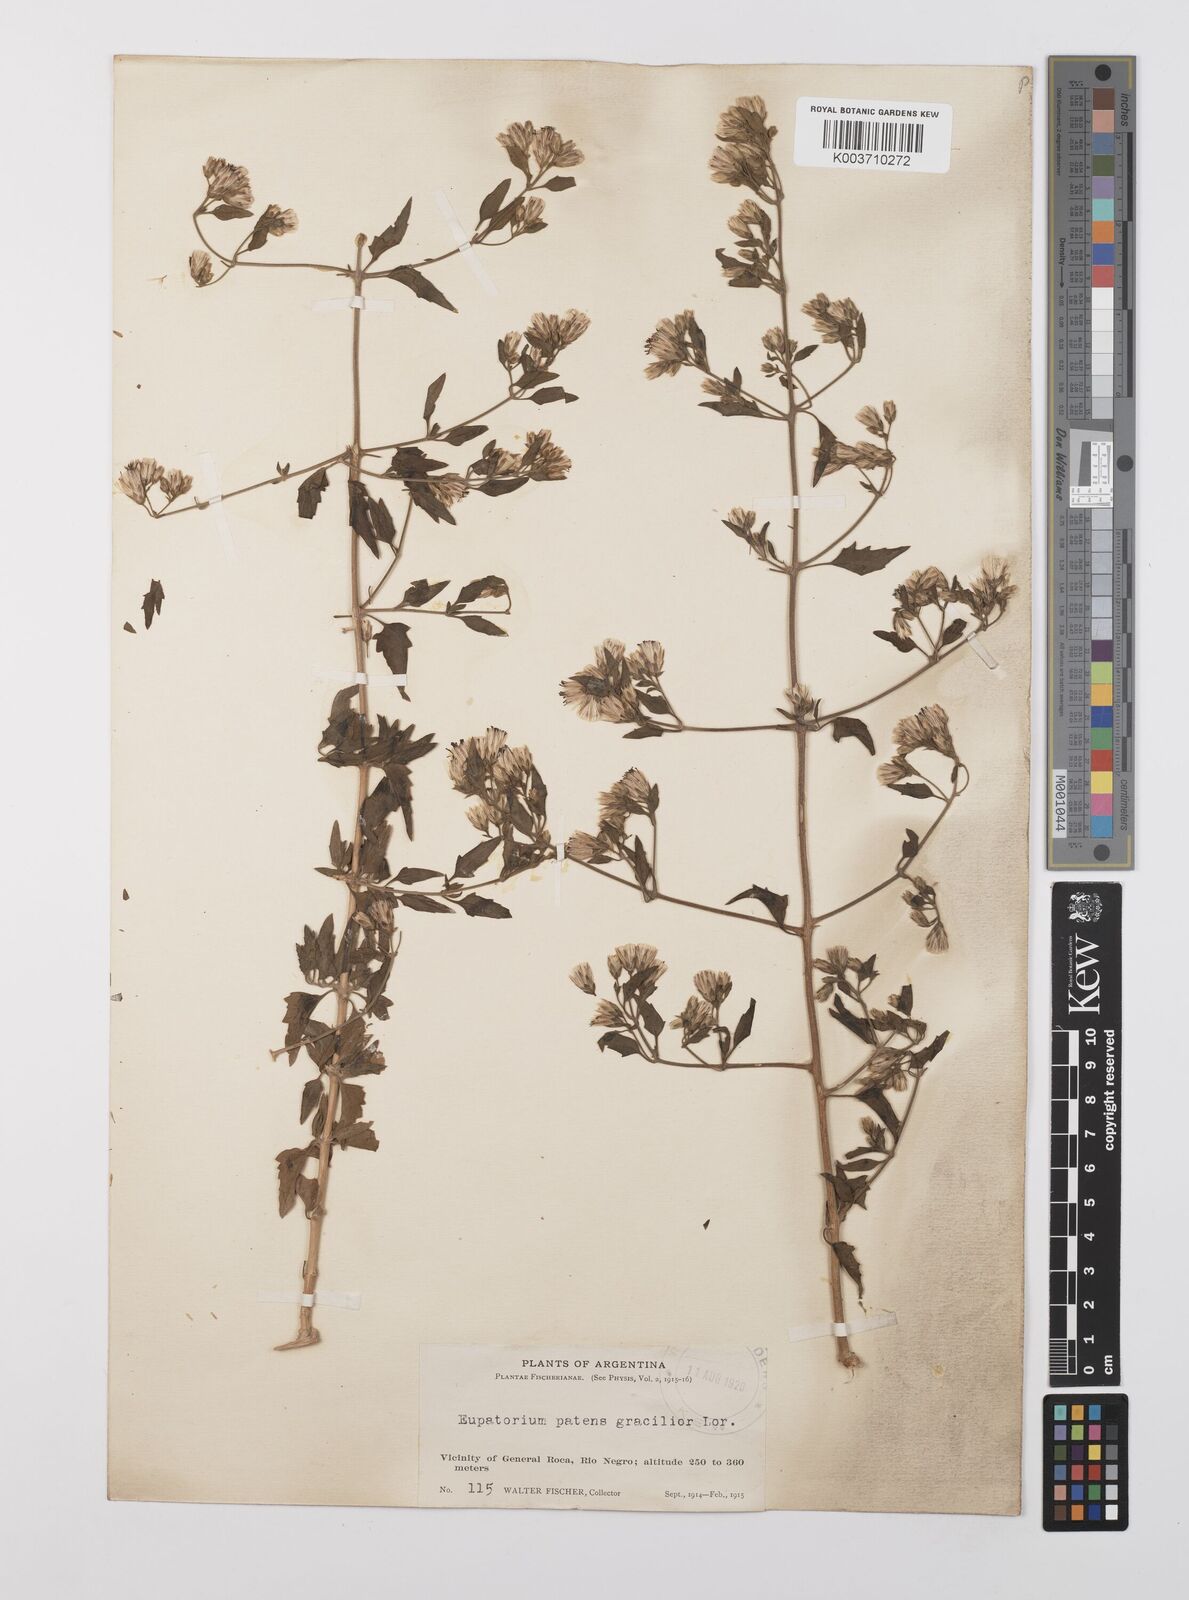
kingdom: Plantae
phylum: Tracheophyta
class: Magnoliopsida
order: Asterales
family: Asteraceae
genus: Austrobrickellia
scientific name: Austrobrickellia patens
